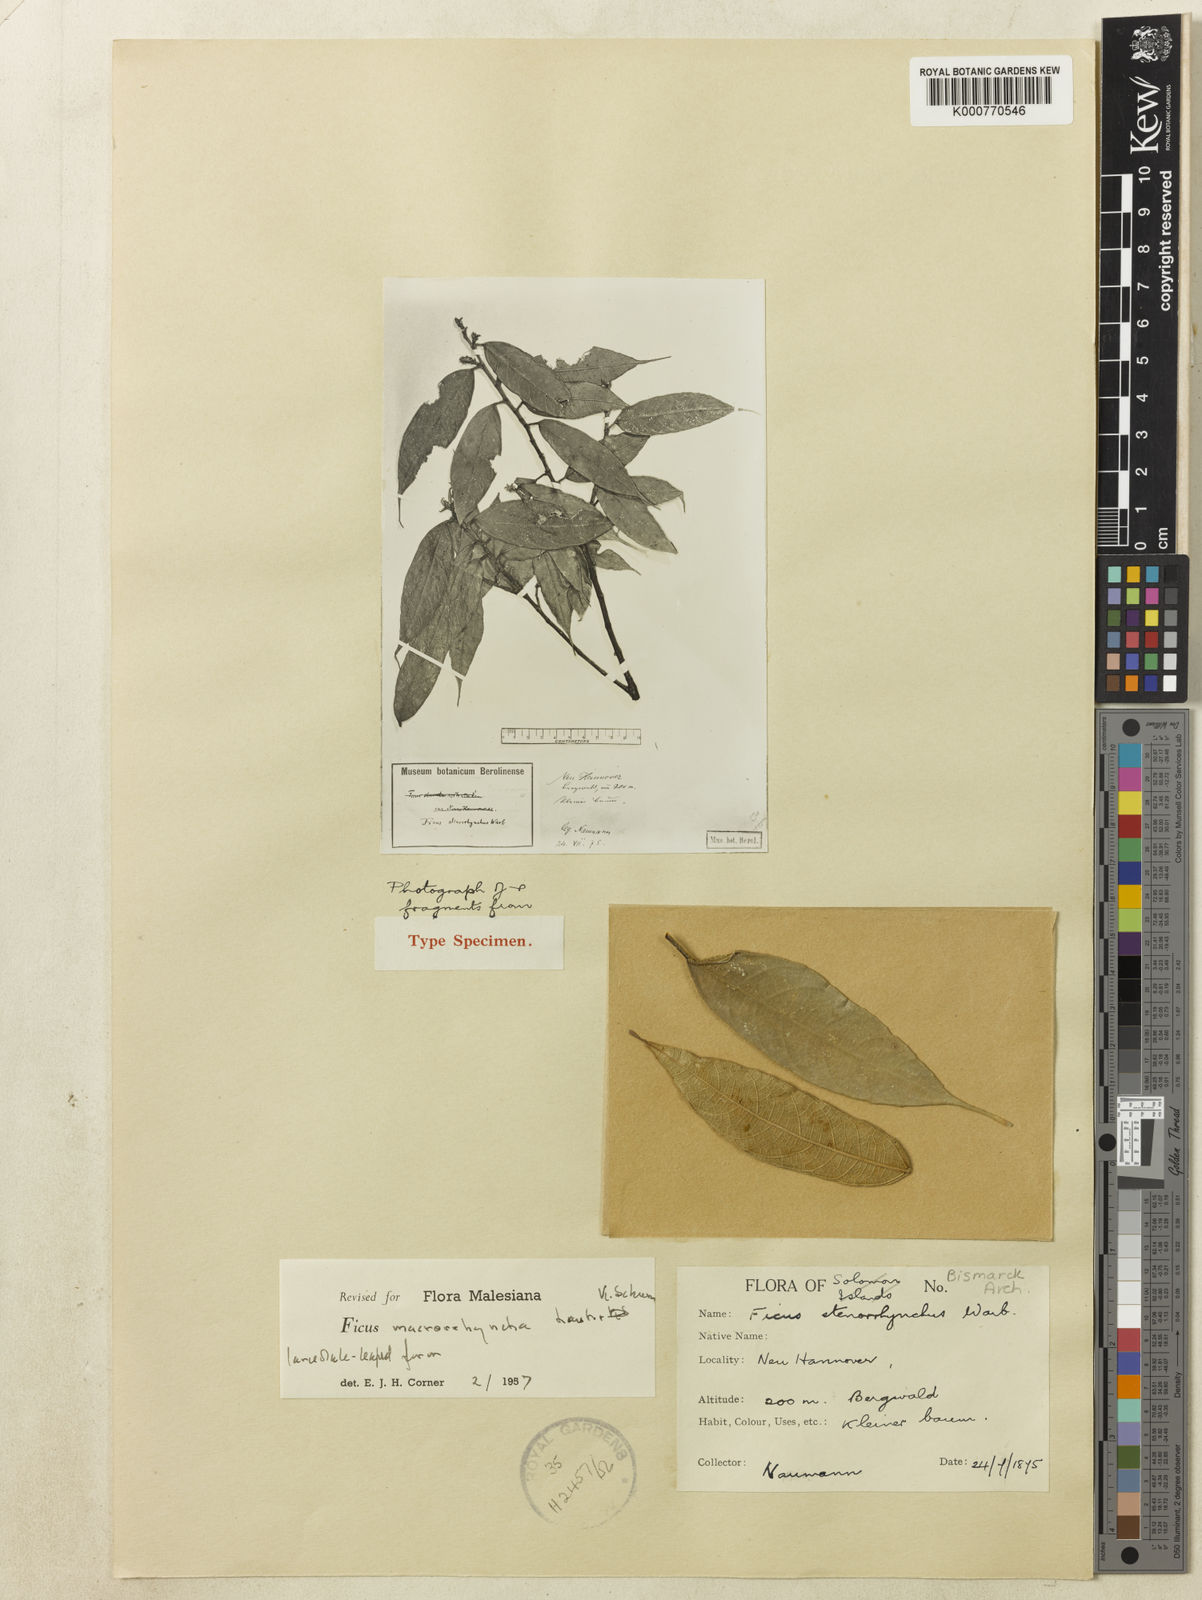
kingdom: Plantae
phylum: Tracheophyta
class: Magnoliopsida
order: Rosales
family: Moraceae
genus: Ficus
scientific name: Ficus macrorrhyncha
